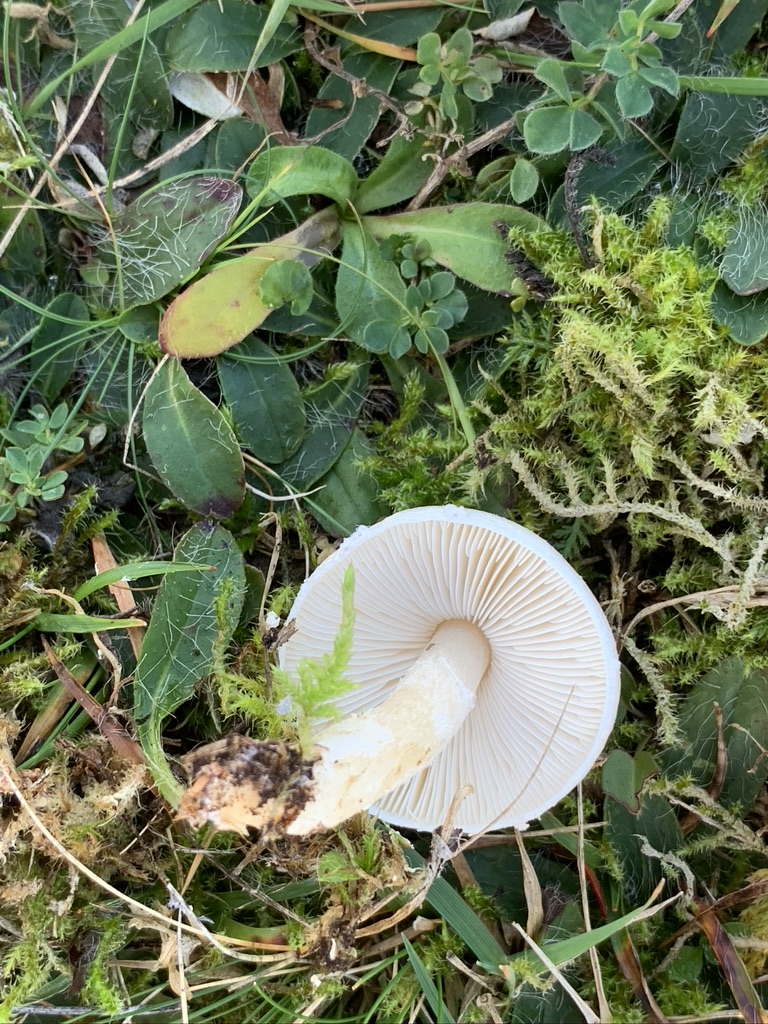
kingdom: Fungi
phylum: Basidiomycota
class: Agaricomycetes
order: Agaricales
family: Agaricaceae
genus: Lepiota
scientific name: Lepiota erminea
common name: hvid parasolhat
